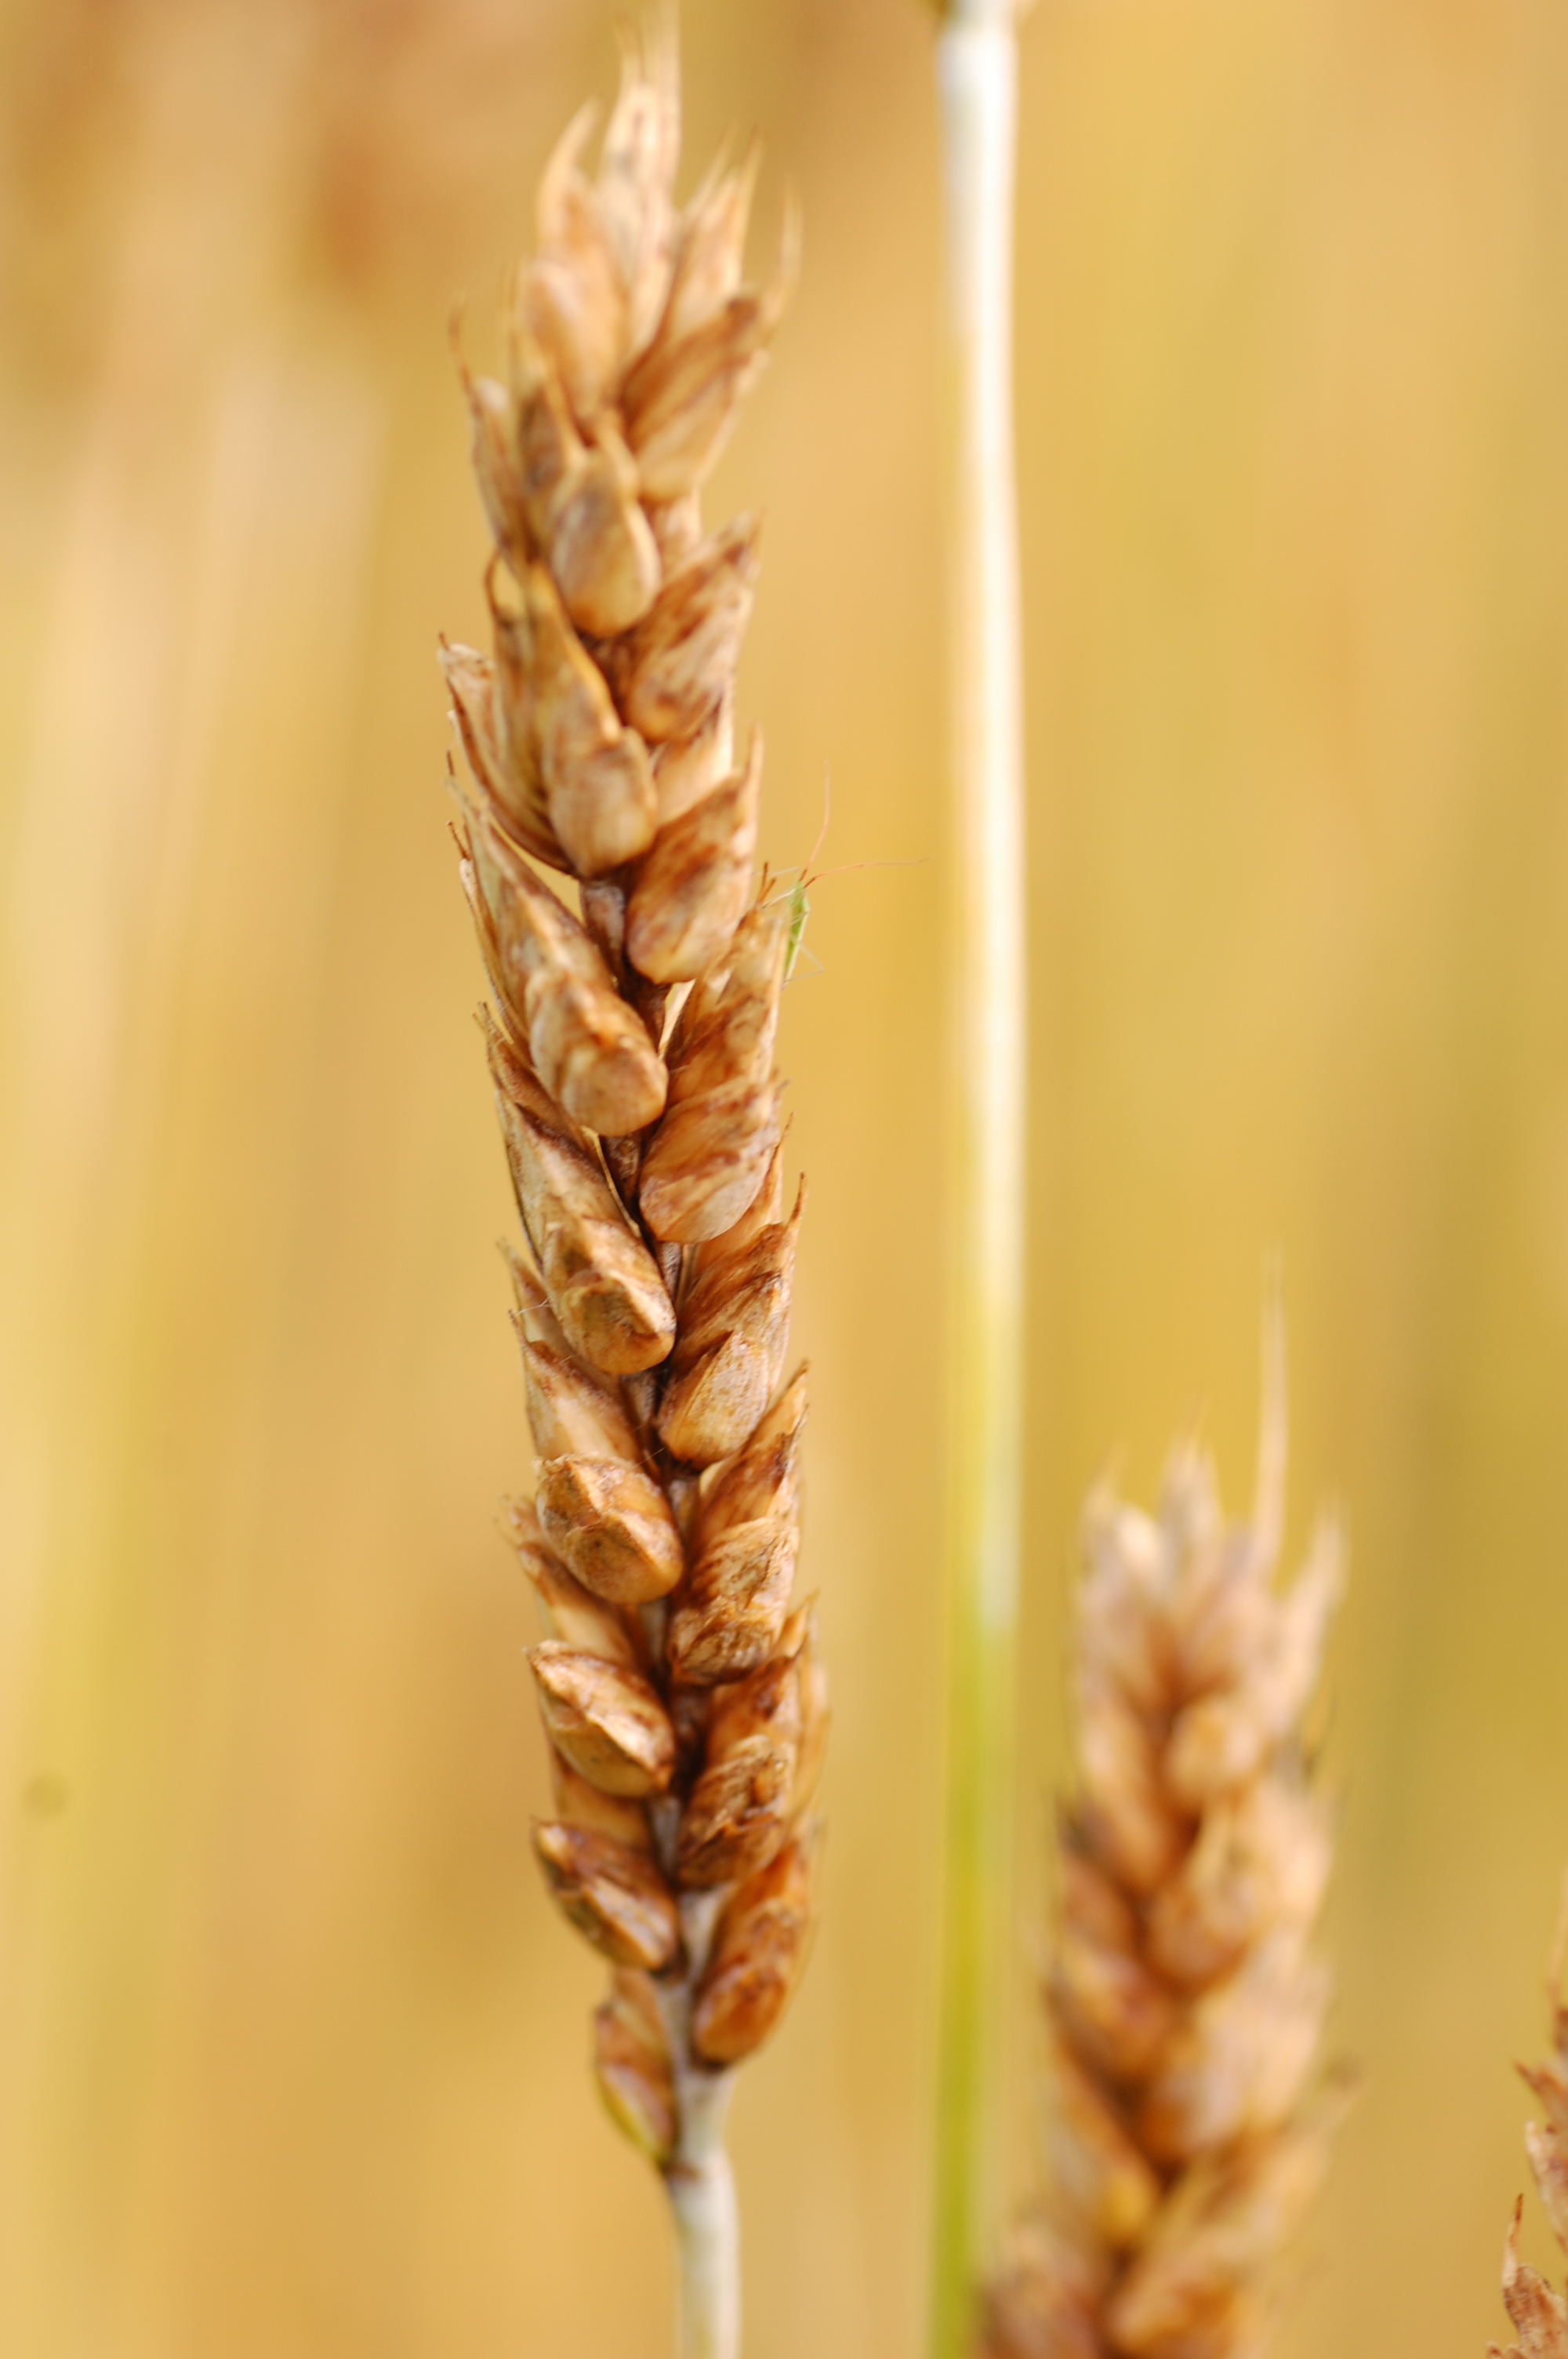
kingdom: Plantae
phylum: Tracheophyta
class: Liliopsida
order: Poales
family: Poaceae
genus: Triticum
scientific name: Triticum aestivum
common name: Common wheat
